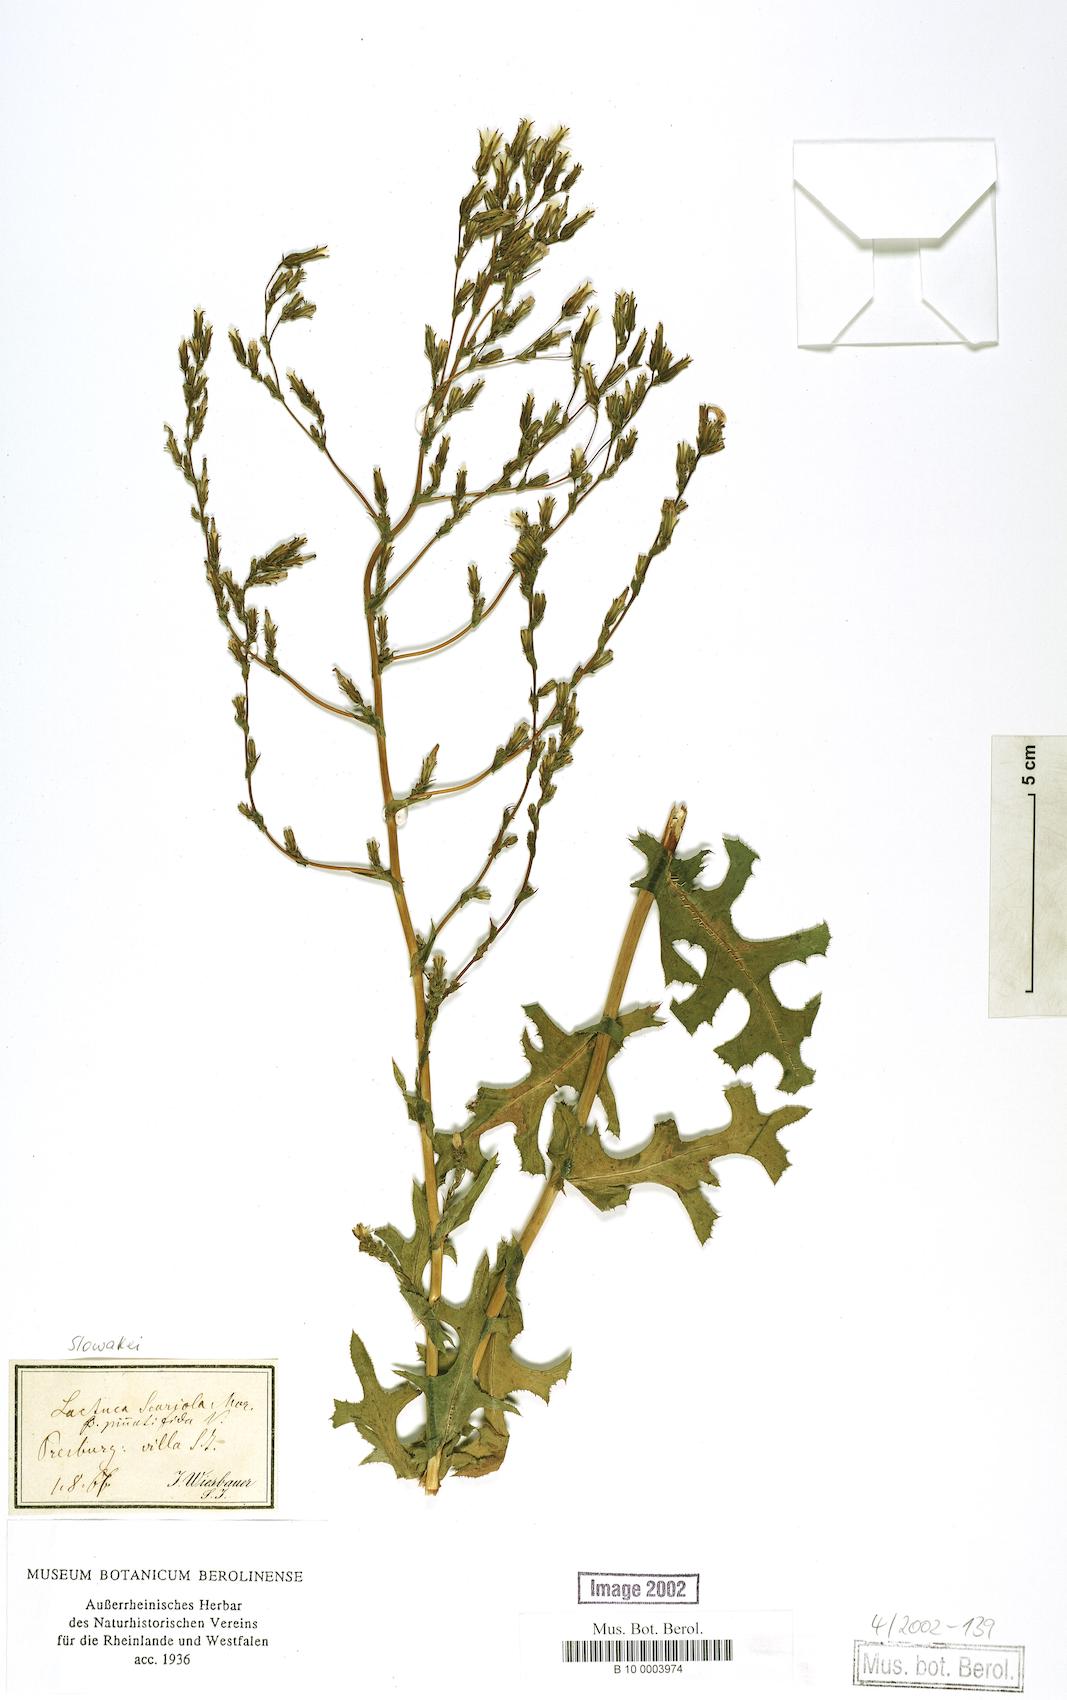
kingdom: Plantae
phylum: Tracheophyta
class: Magnoliopsida
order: Asterales
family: Asteraceae
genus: Lactuca
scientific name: Lactuca serriola
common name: Prickly lettuce
